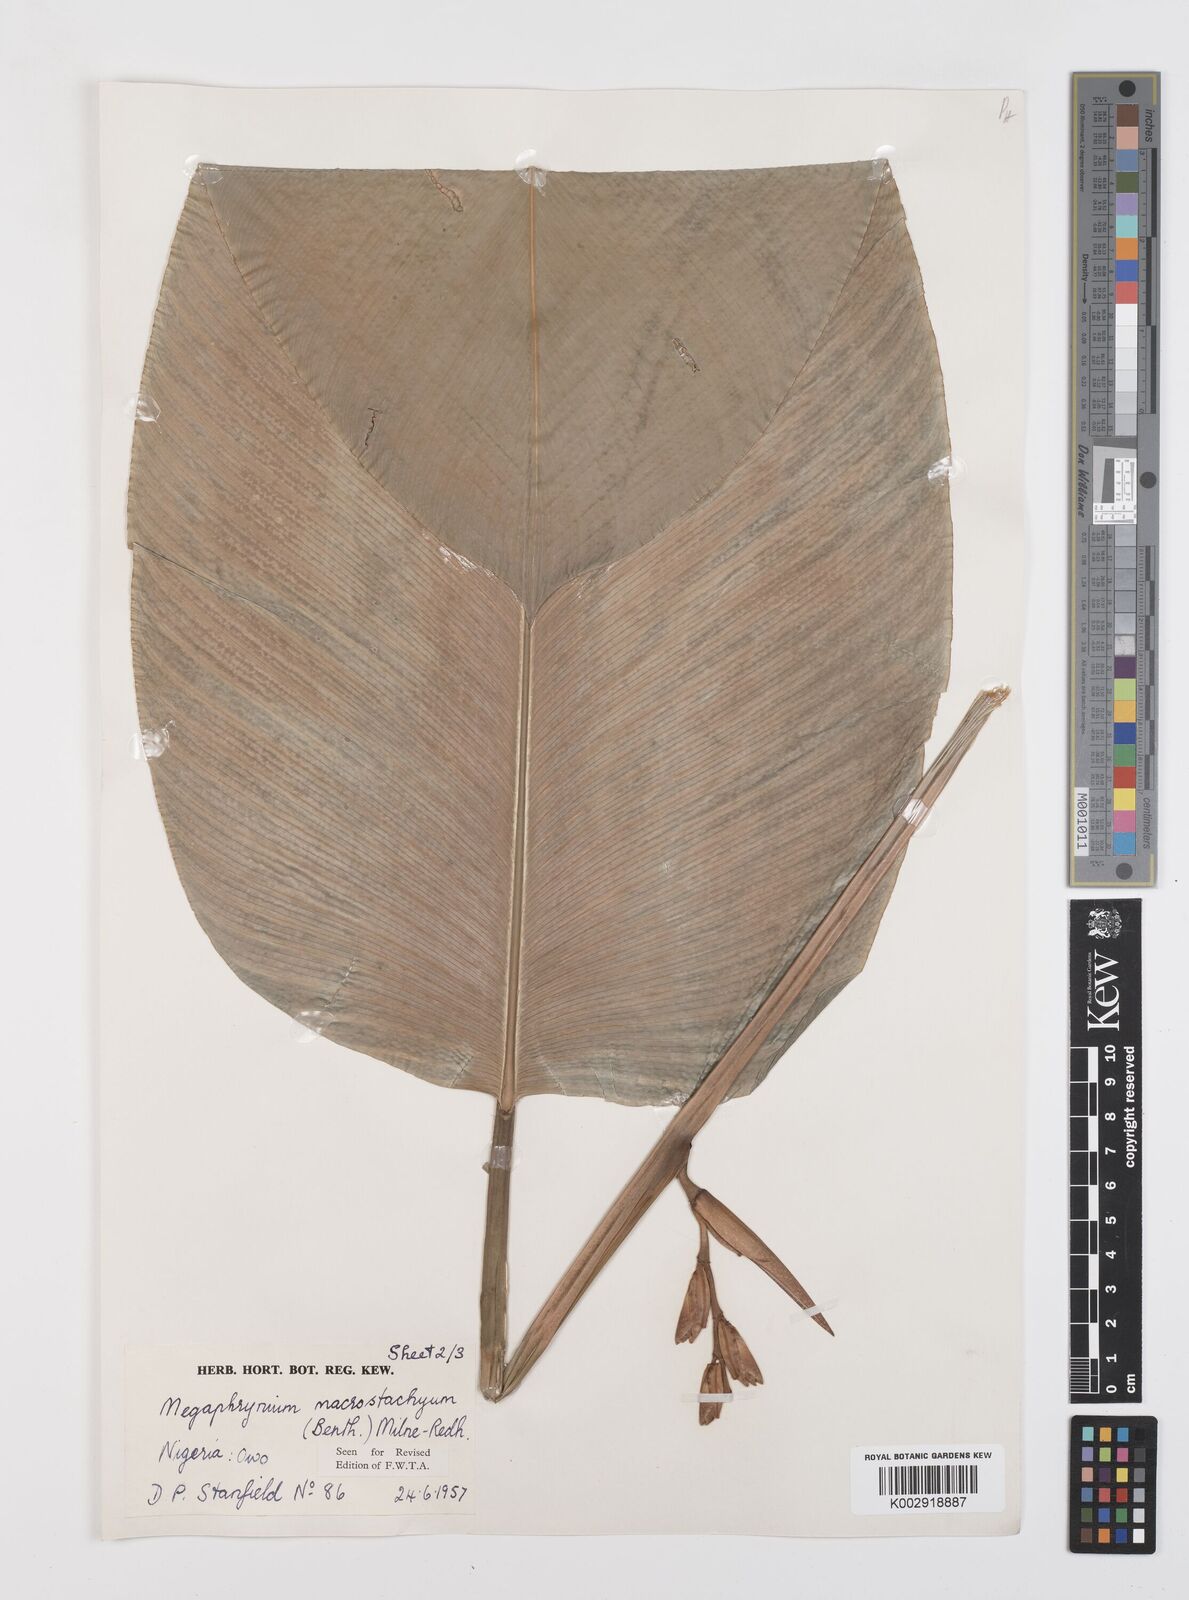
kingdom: Plantae
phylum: Tracheophyta
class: Liliopsida
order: Zingiberales
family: Marantaceae
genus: Megaphrynium
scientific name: Megaphrynium macrostachyum
